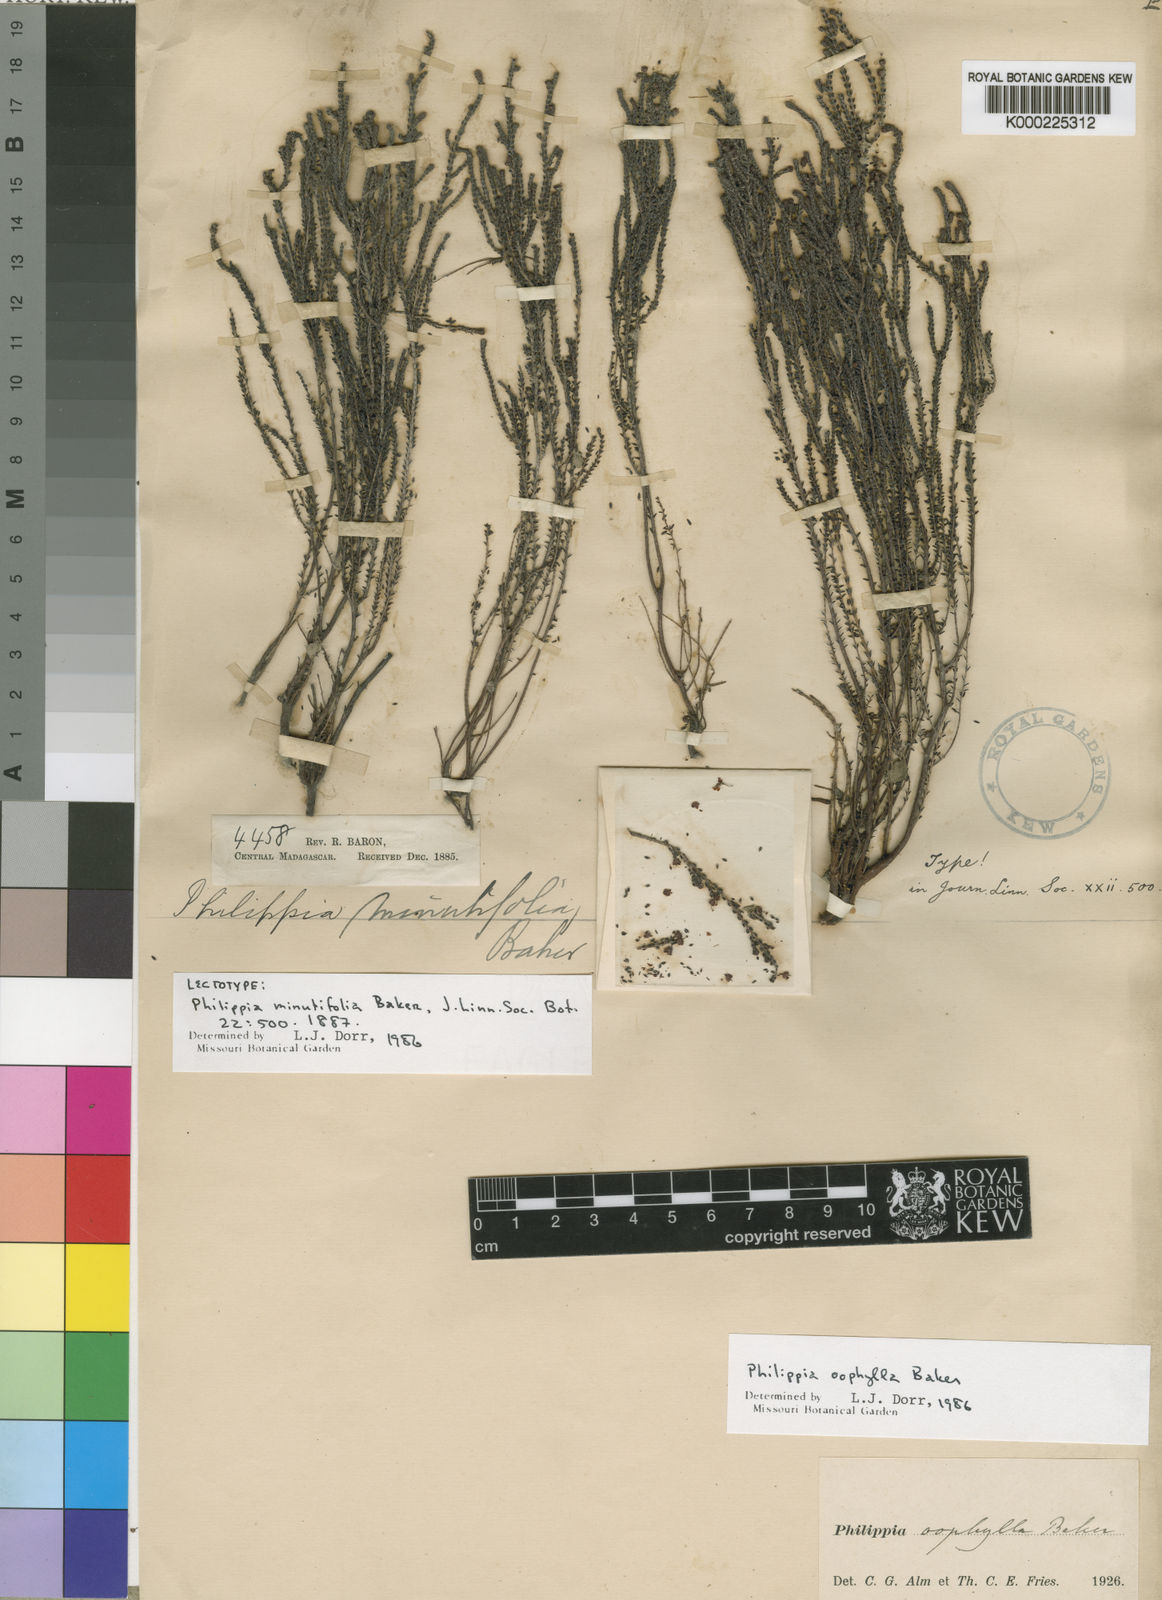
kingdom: Plantae
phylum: Tracheophyta
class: Magnoliopsida
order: Ericales
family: Ericaceae
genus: Erica
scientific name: Erica minutifolia
